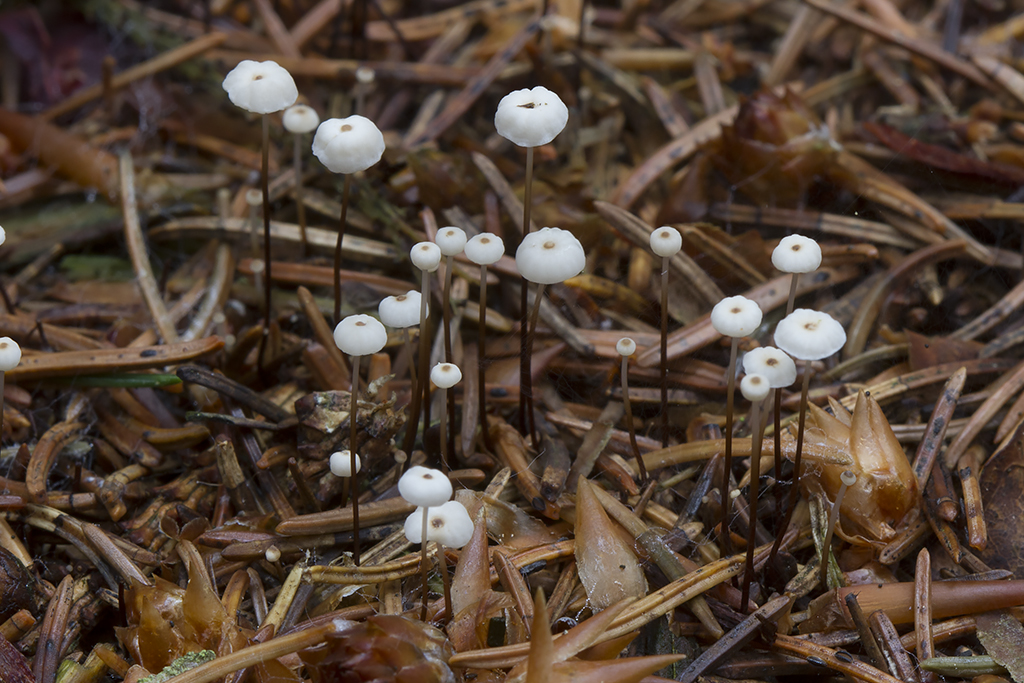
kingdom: Fungi
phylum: Basidiomycota
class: Agaricomycetes
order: Agaricales
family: Marasmiaceae
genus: Marasmius
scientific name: Marasmius wettsteinii
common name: Wettsteins bruskhat
